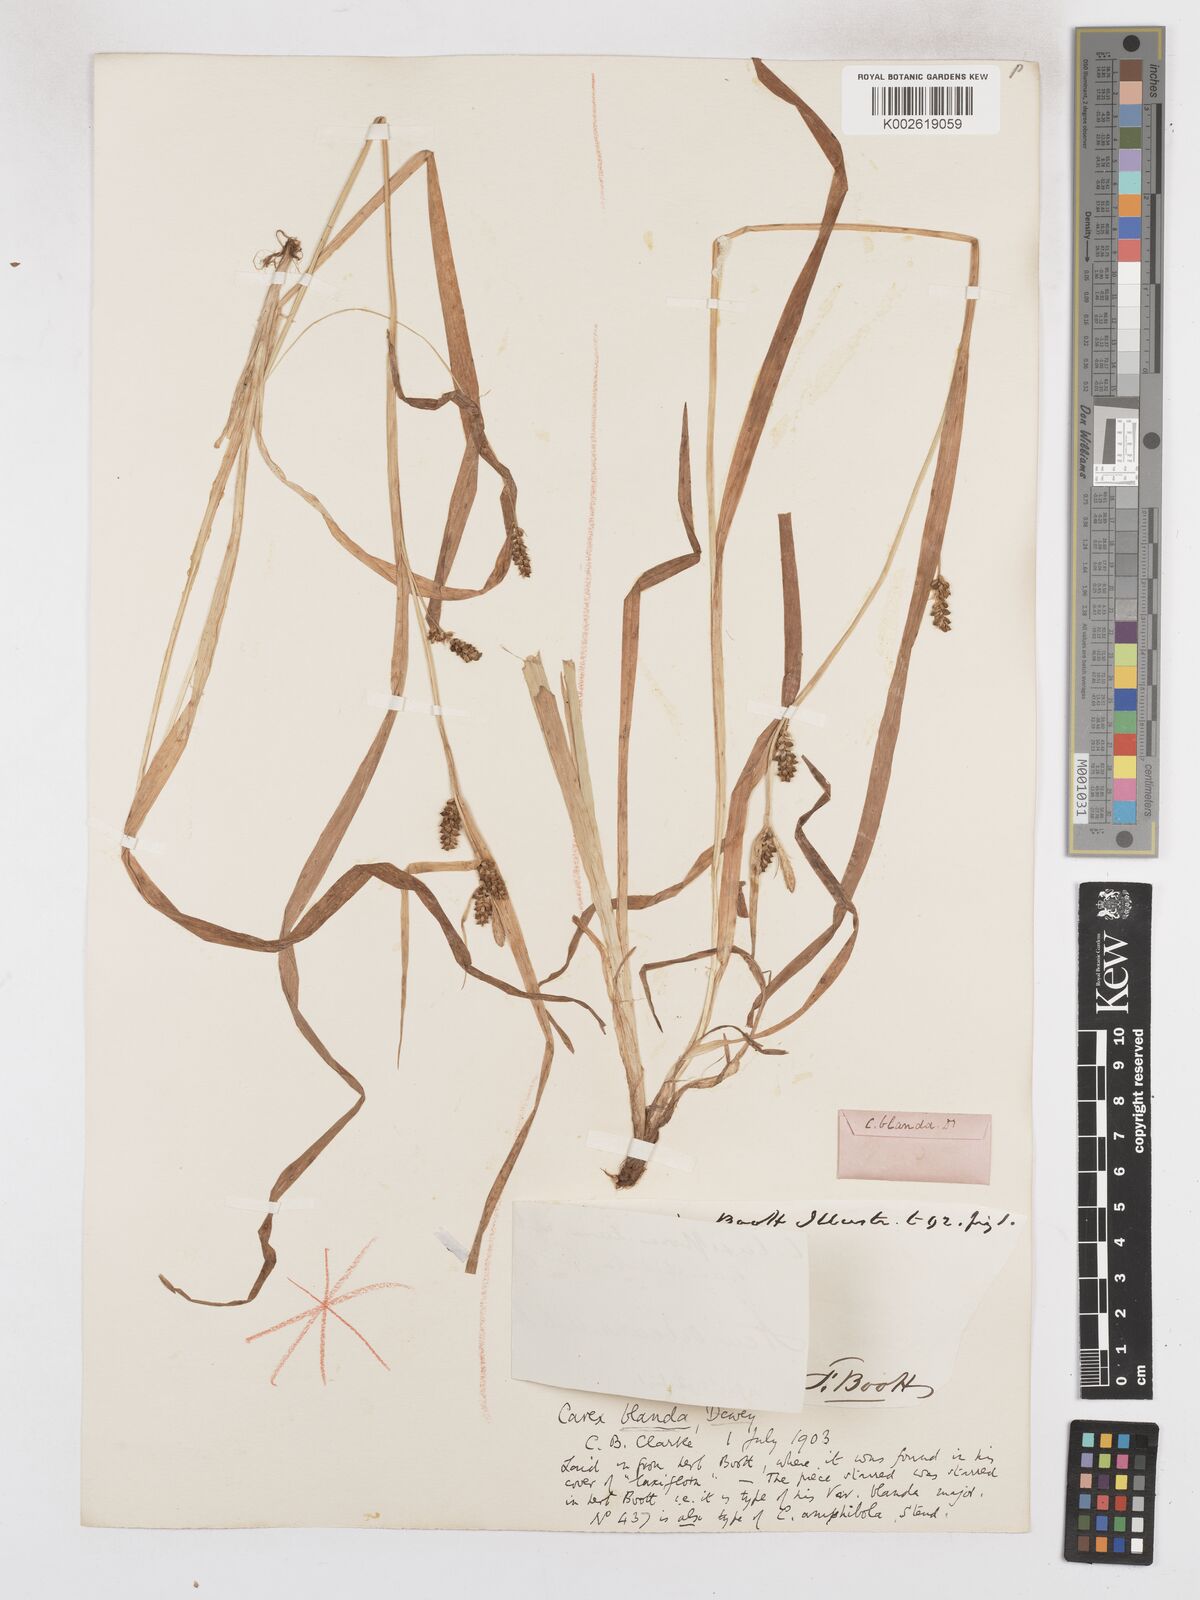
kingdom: Plantae
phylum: Tracheophyta
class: Liliopsida
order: Poales
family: Cyperaceae
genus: Carex
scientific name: Carex blanda
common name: Bland sedge
